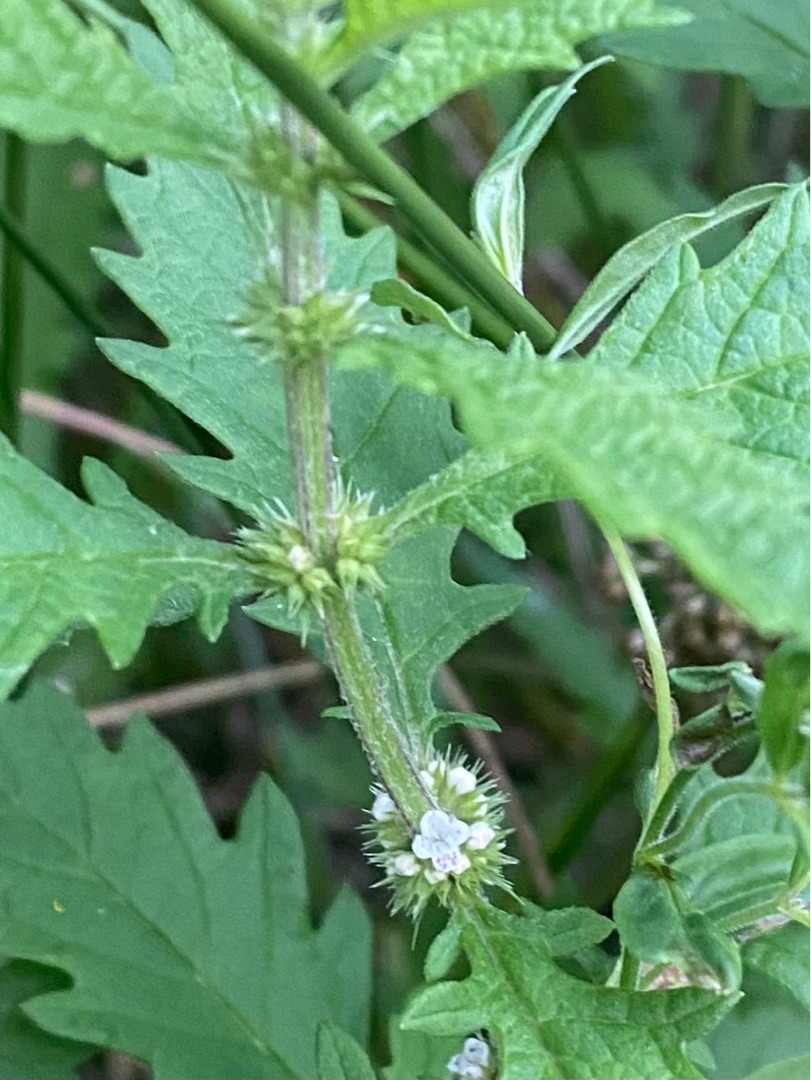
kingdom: Plantae
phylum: Tracheophyta
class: Magnoliopsida
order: Lamiales
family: Lamiaceae
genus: Lycopus
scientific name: Lycopus europaeus
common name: Sværtevæld
